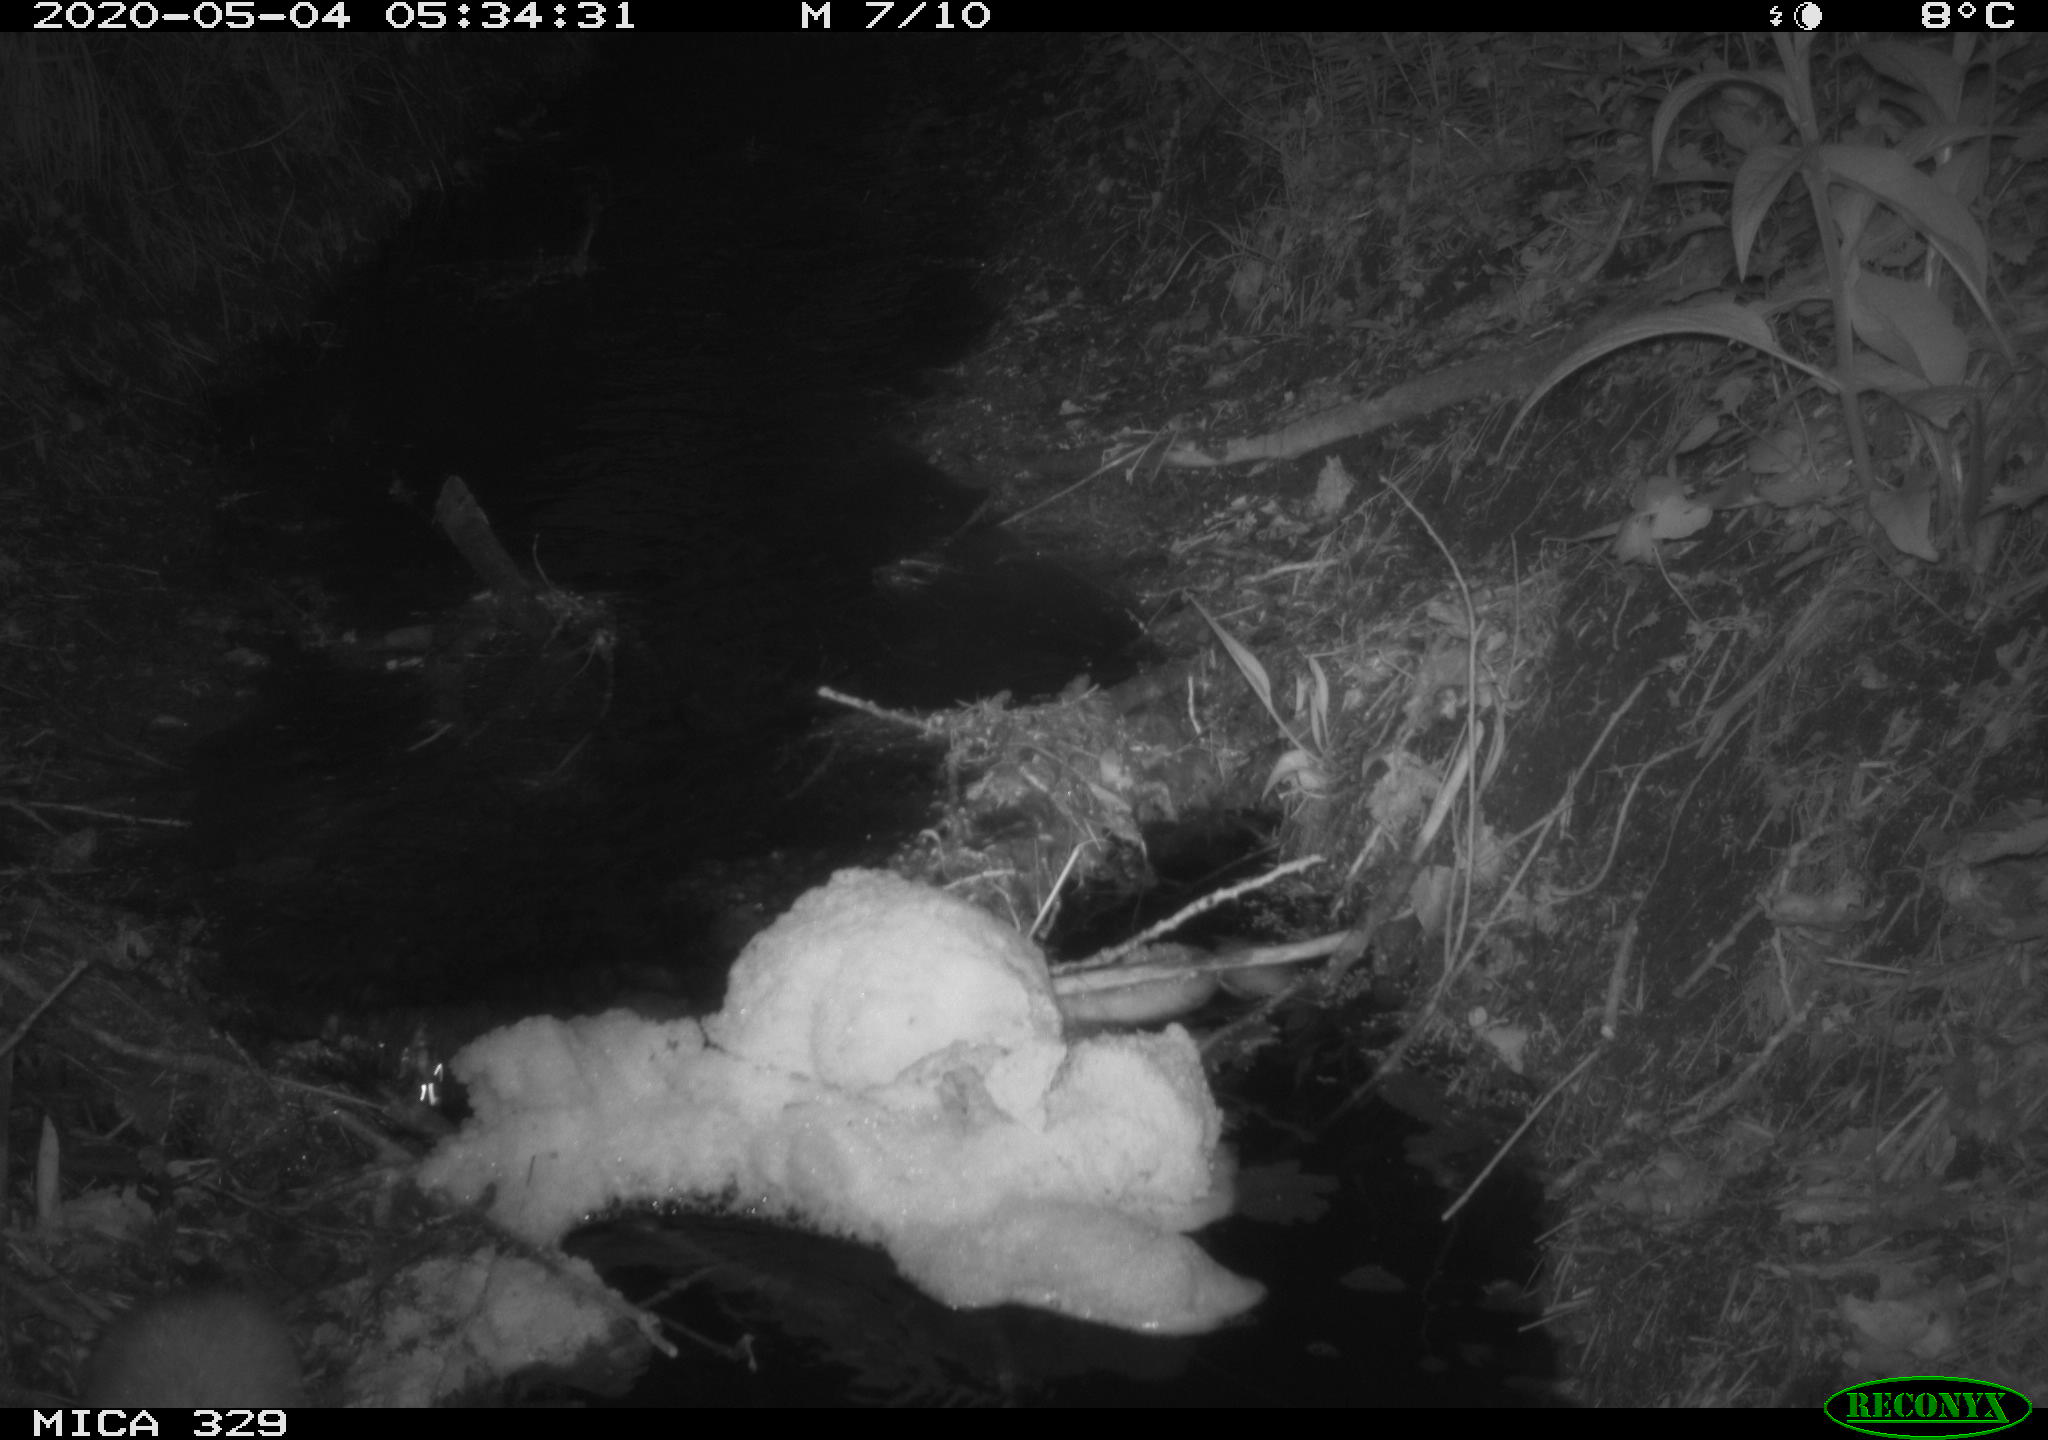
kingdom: Animalia
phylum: Chordata
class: Mammalia
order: Rodentia
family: Cricetidae
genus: Ondatra
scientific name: Ondatra zibethicus
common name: Muskrat
